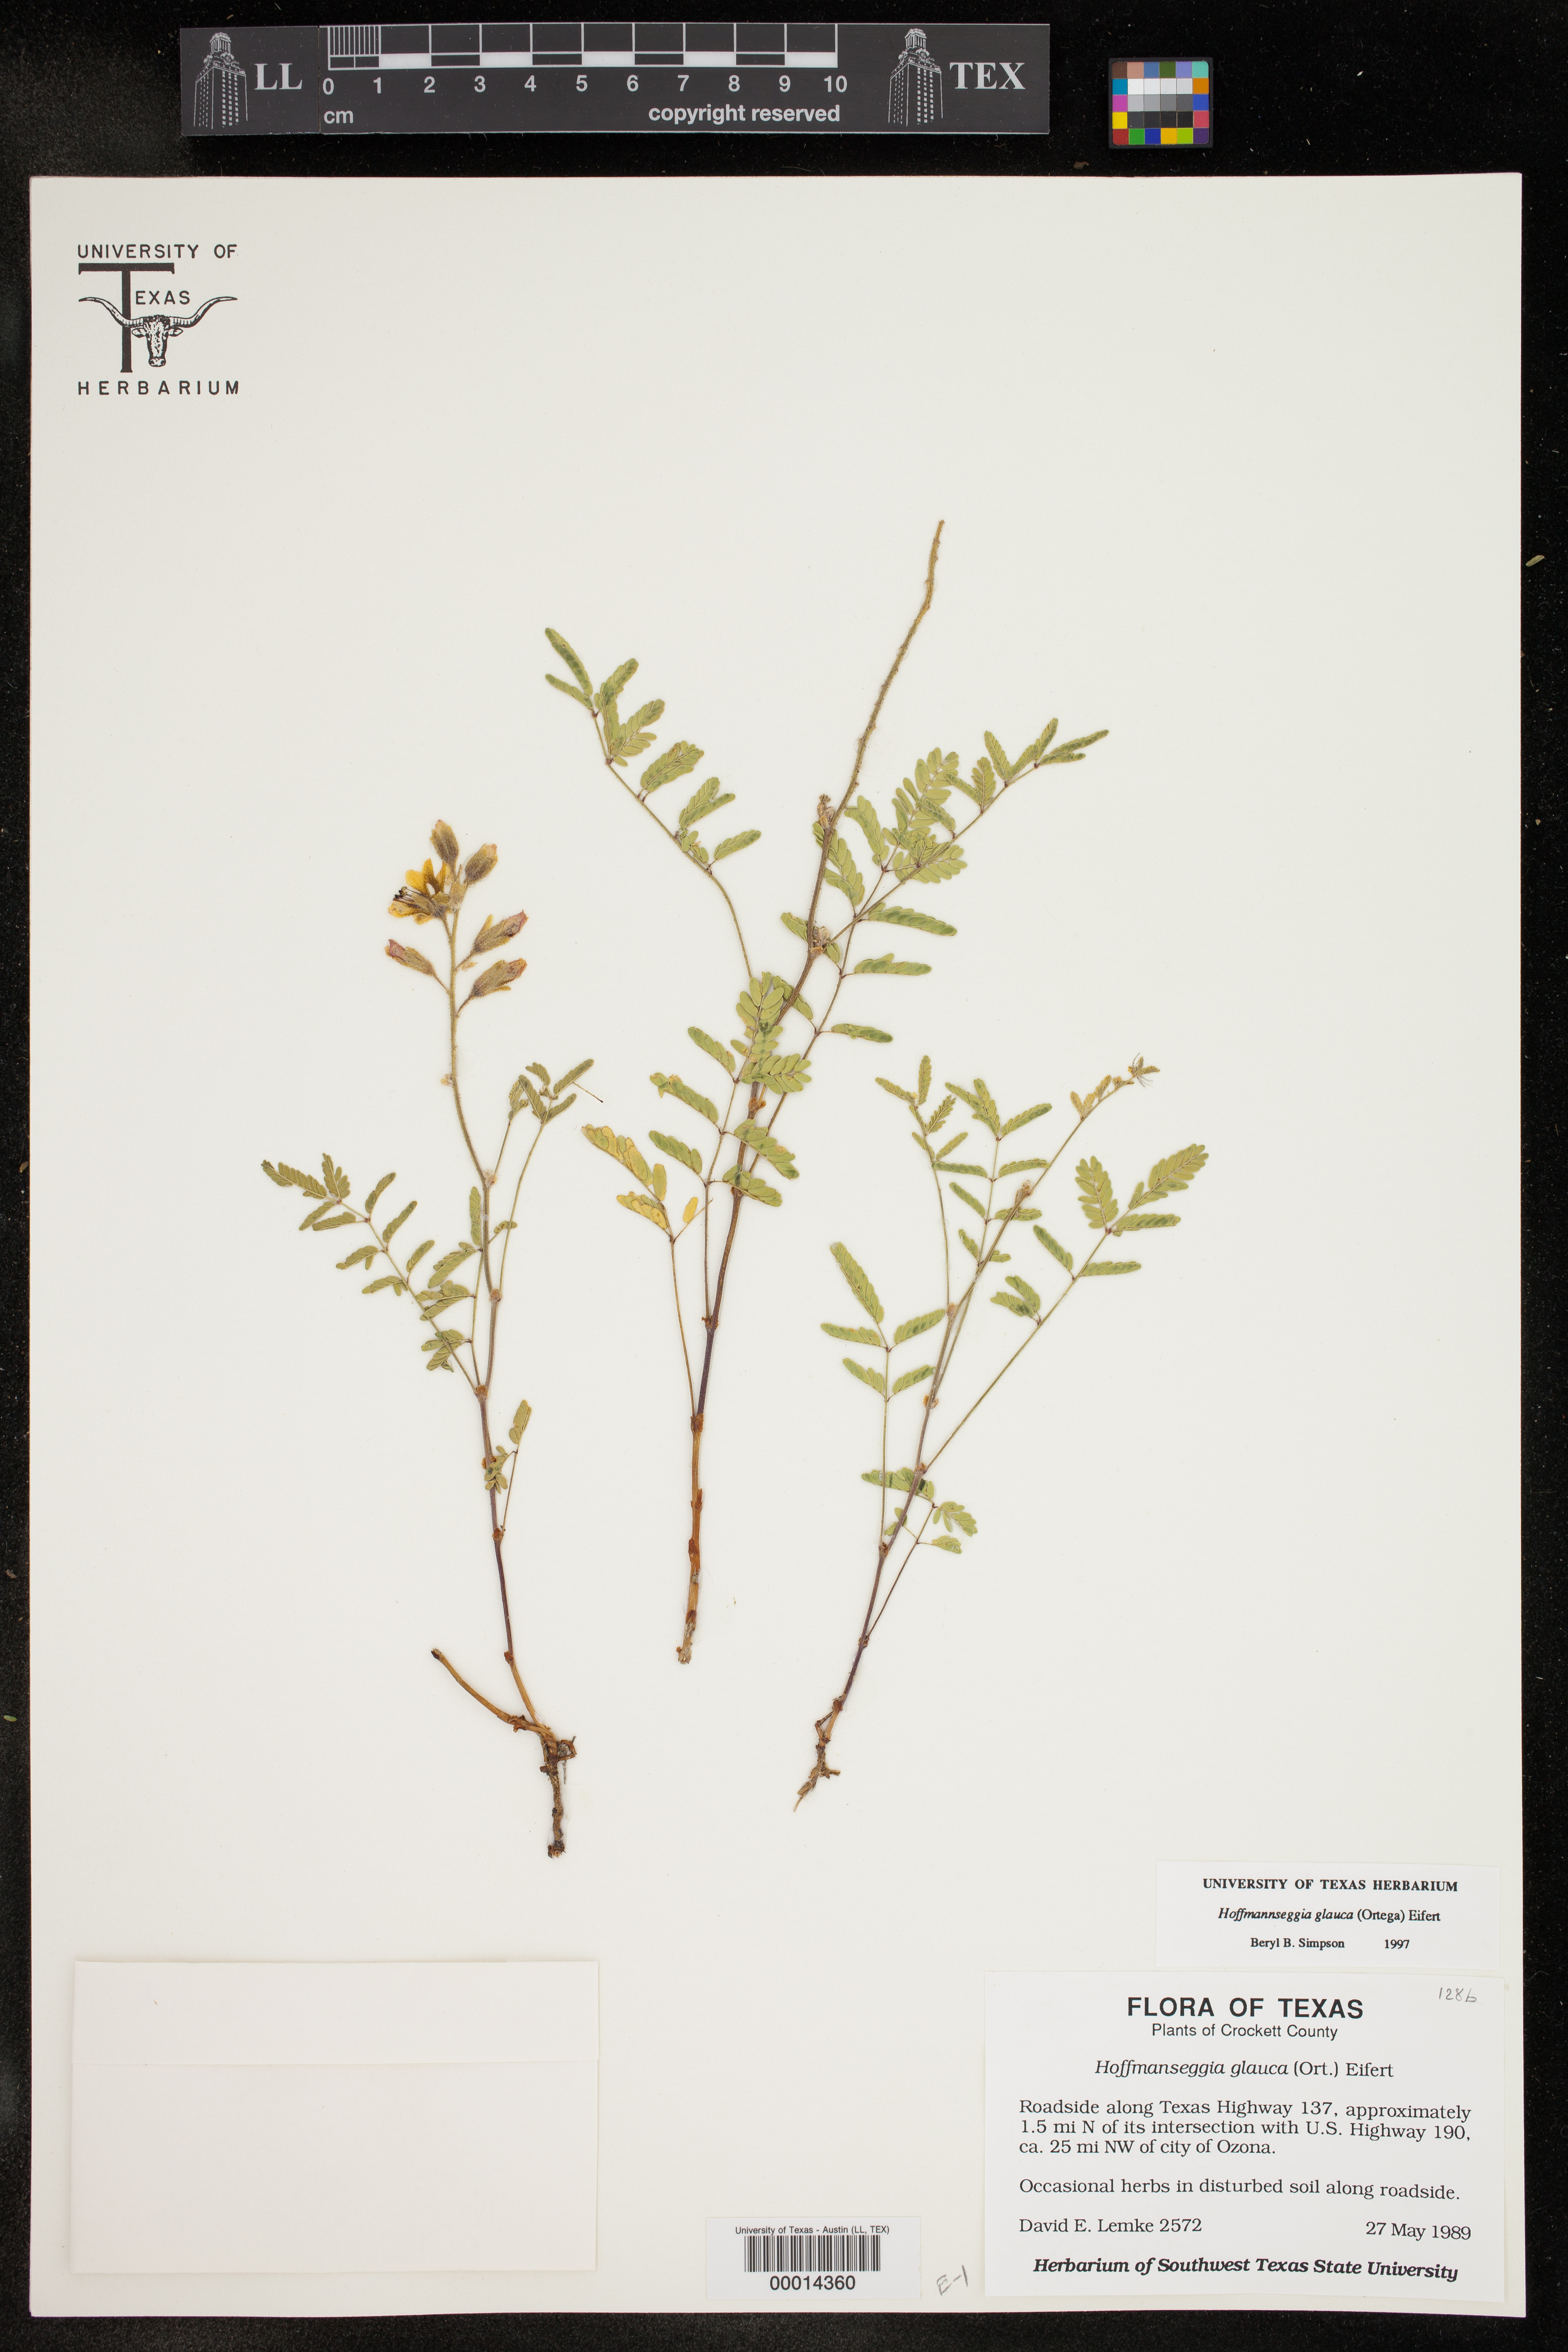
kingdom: Plantae
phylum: Tracheophyta
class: Magnoliopsida
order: Fabales
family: Fabaceae
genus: Hoffmannseggia
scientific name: Hoffmannseggia glauca
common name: Pignut
